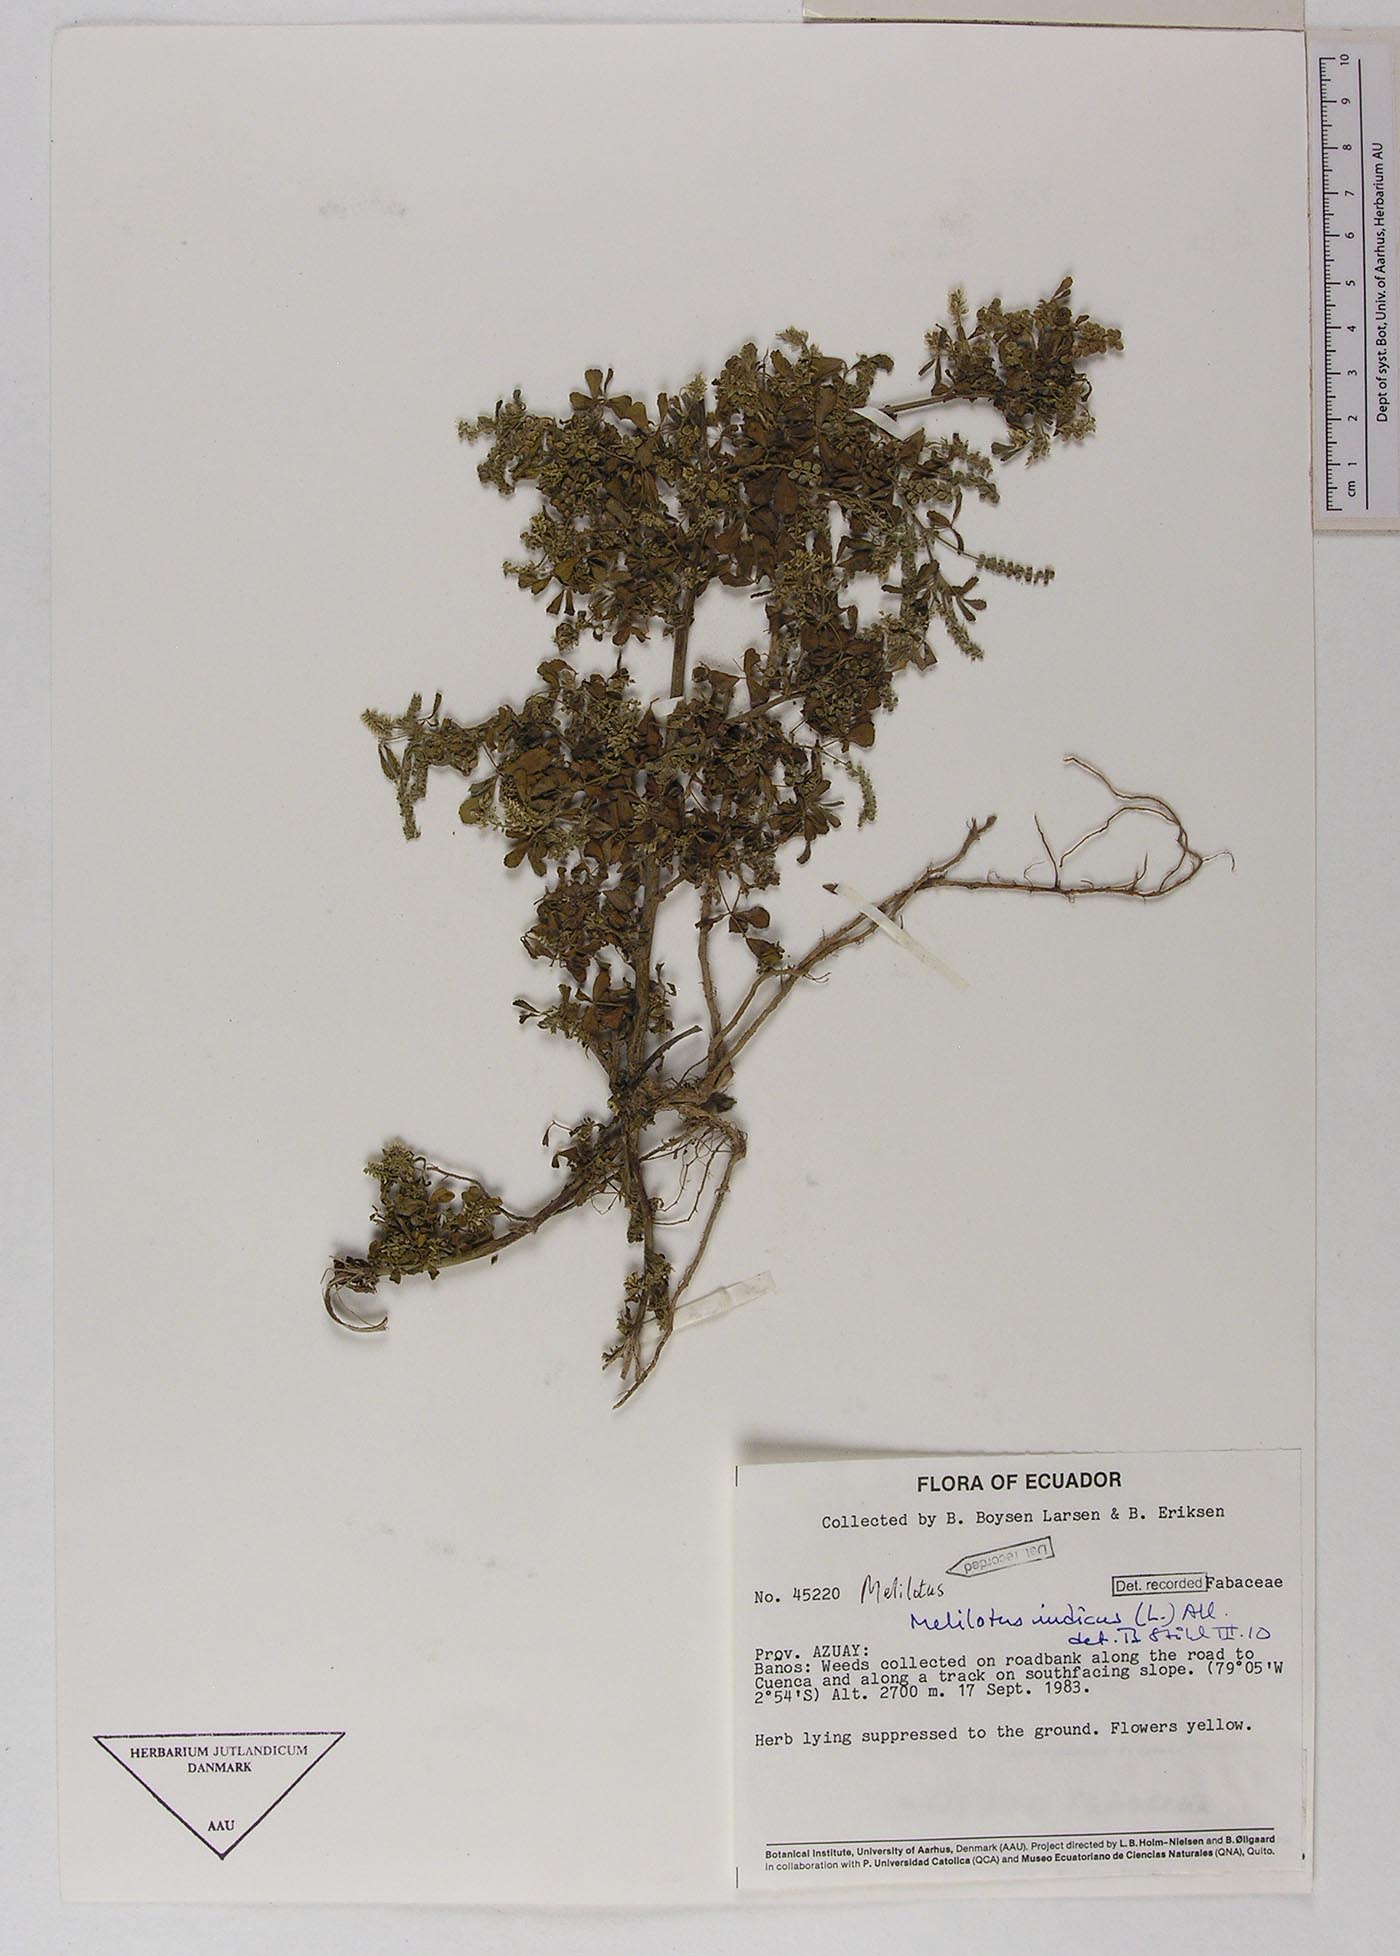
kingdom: Plantae
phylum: Tracheophyta
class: Magnoliopsida
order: Fabales
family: Fabaceae
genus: Melilotus
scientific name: Melilotus indicus
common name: Small melilot
